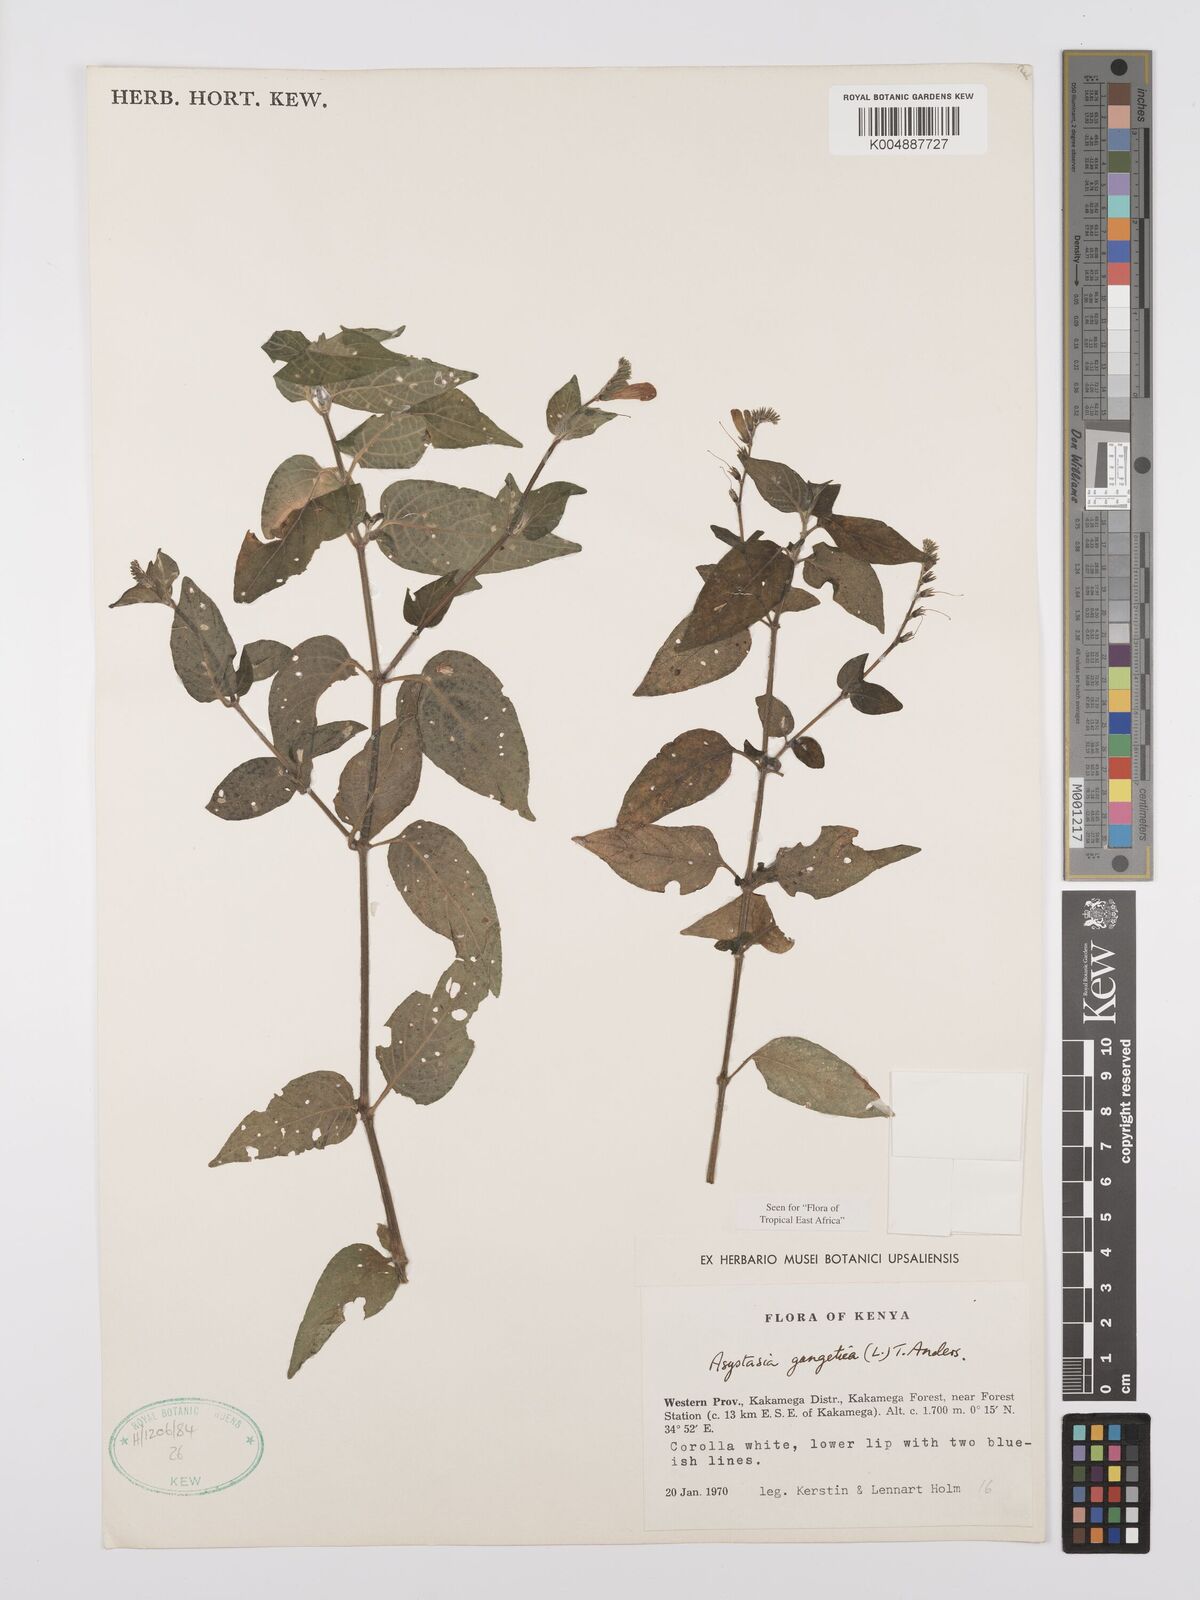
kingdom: Plantae
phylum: Tracheophyta
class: Magnoliopsida
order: Lamiales
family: Acanthaceae
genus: Asystasia
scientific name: Asystasia gangetica
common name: Chinese violet
